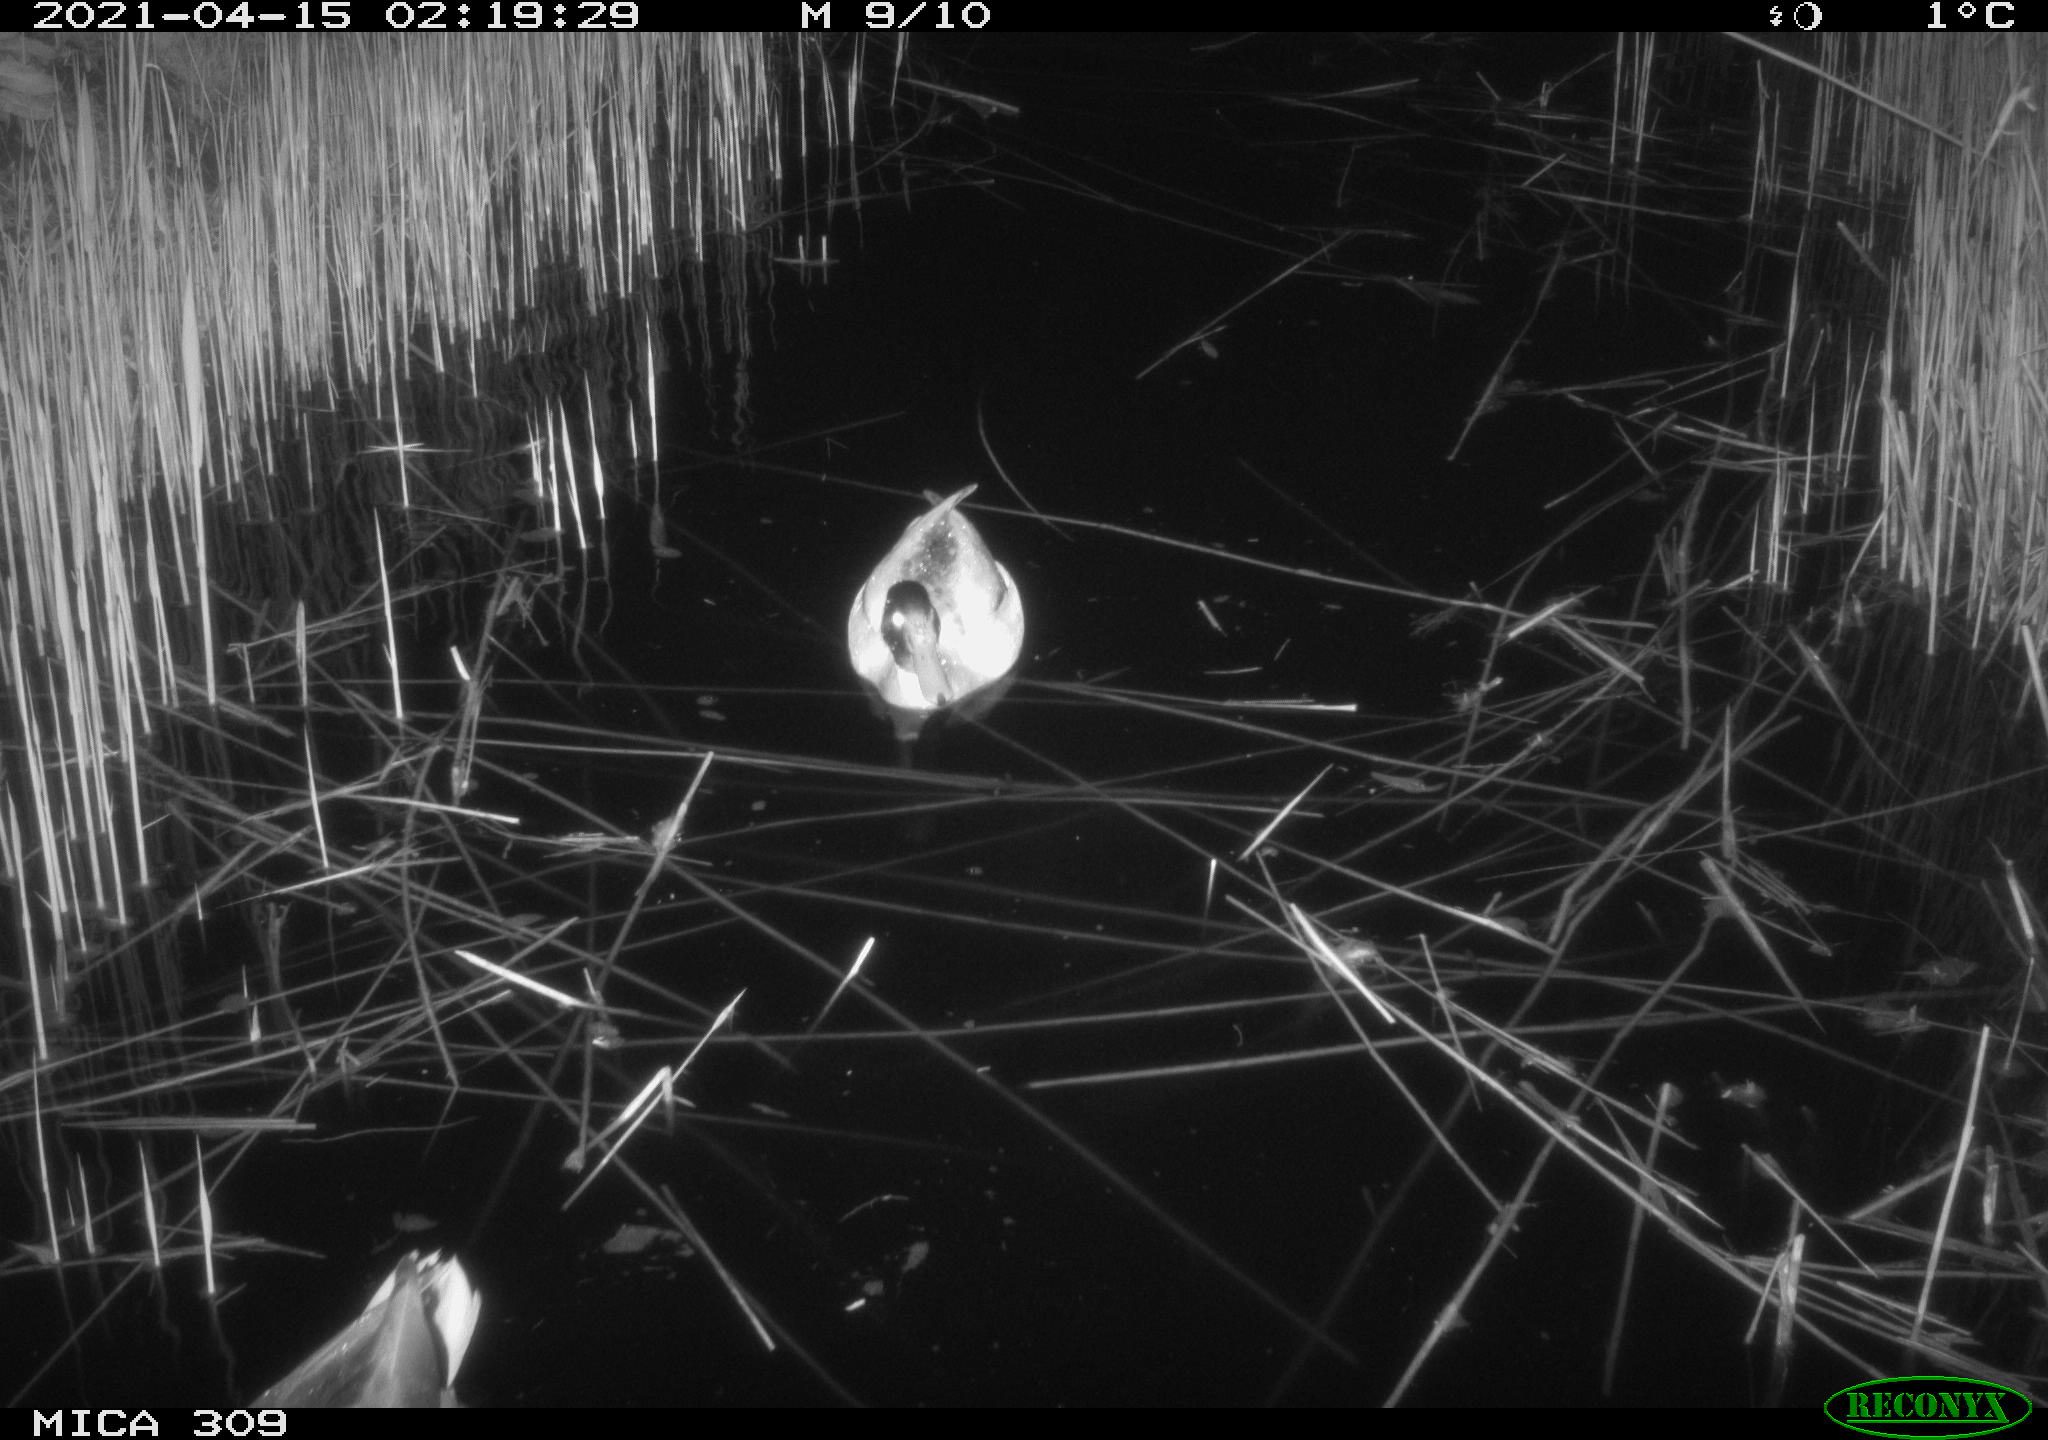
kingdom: Animalia
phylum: Chordata
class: Aves
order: Gruiformes
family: Rallidae
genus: Gallinula
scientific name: Gallinula chloropus
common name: Common moorhen
